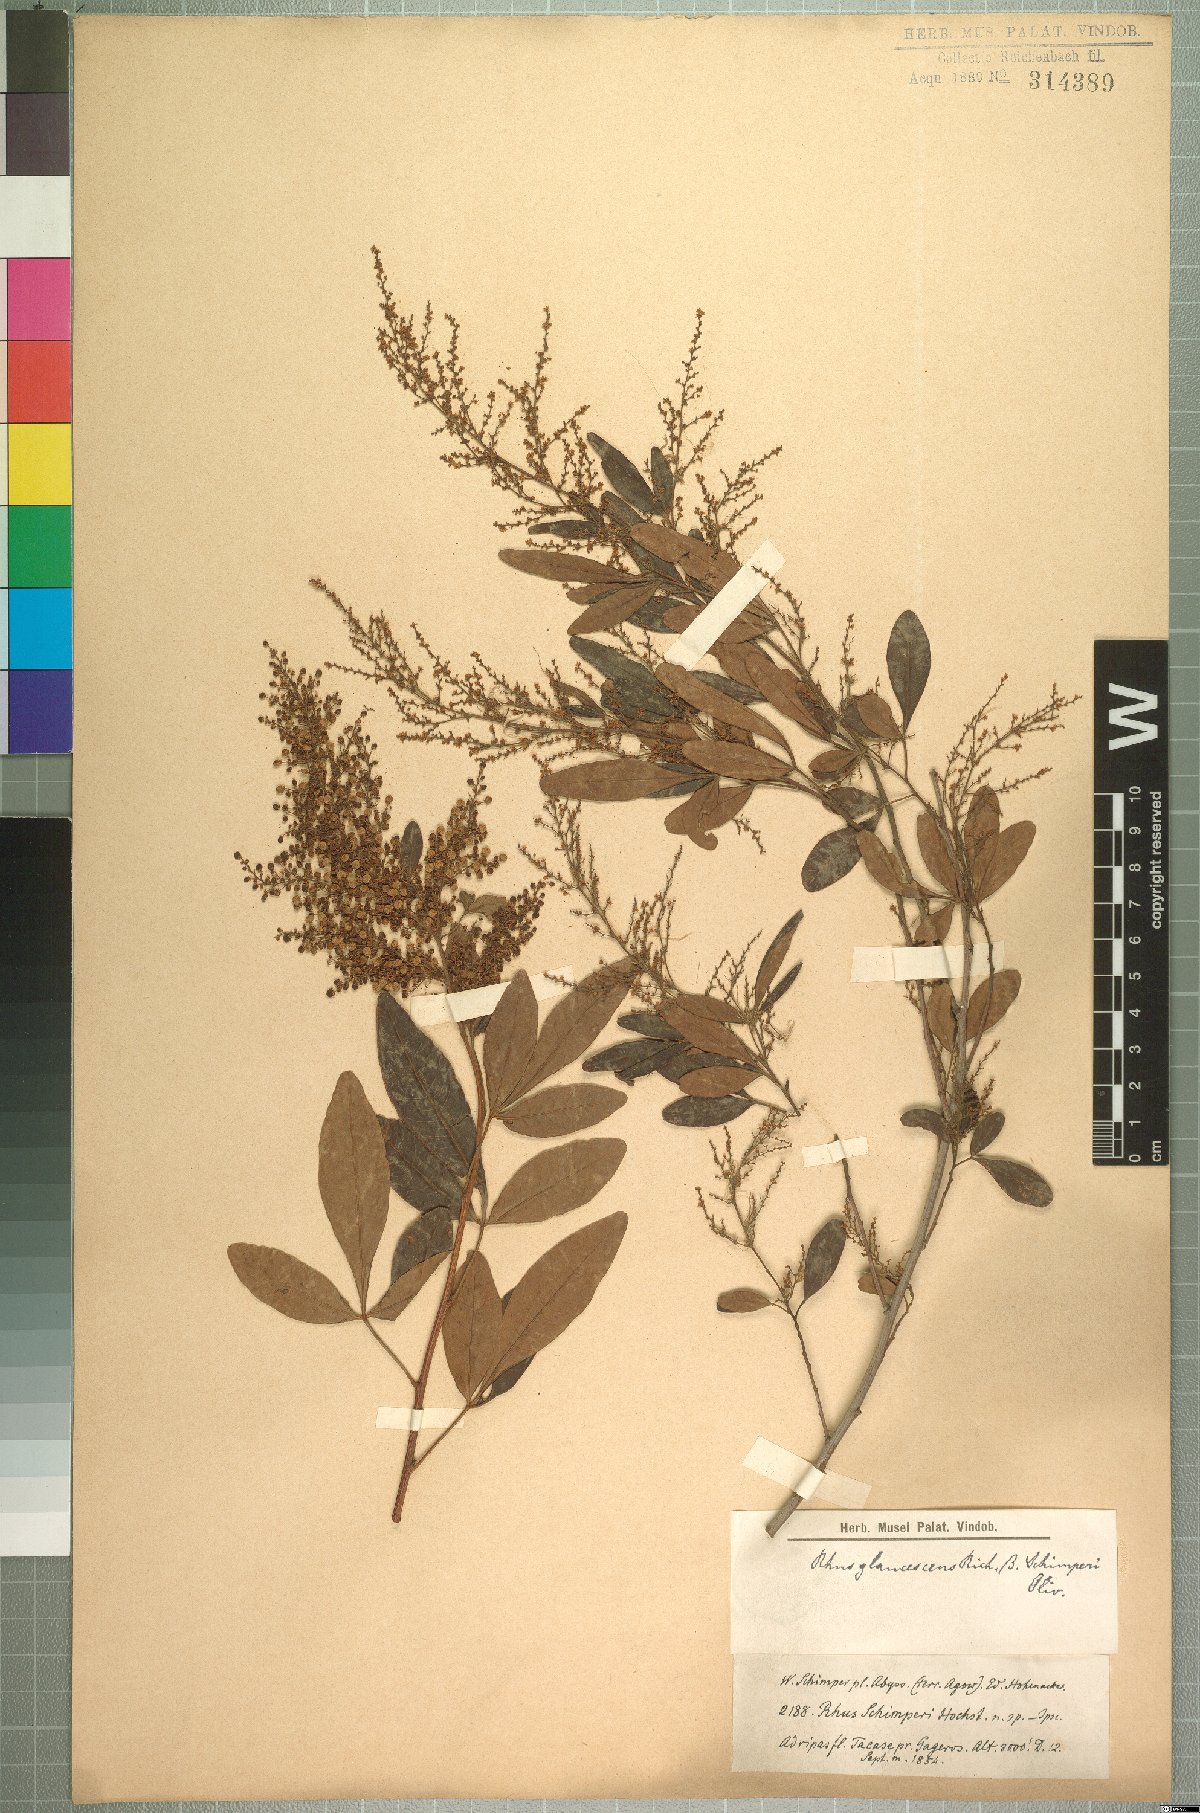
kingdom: Plantae
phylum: Tracheophyta
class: Magnoliopsida
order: Sapindales
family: Anacardiaceae
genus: Searsia
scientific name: Searsia quartiniana
